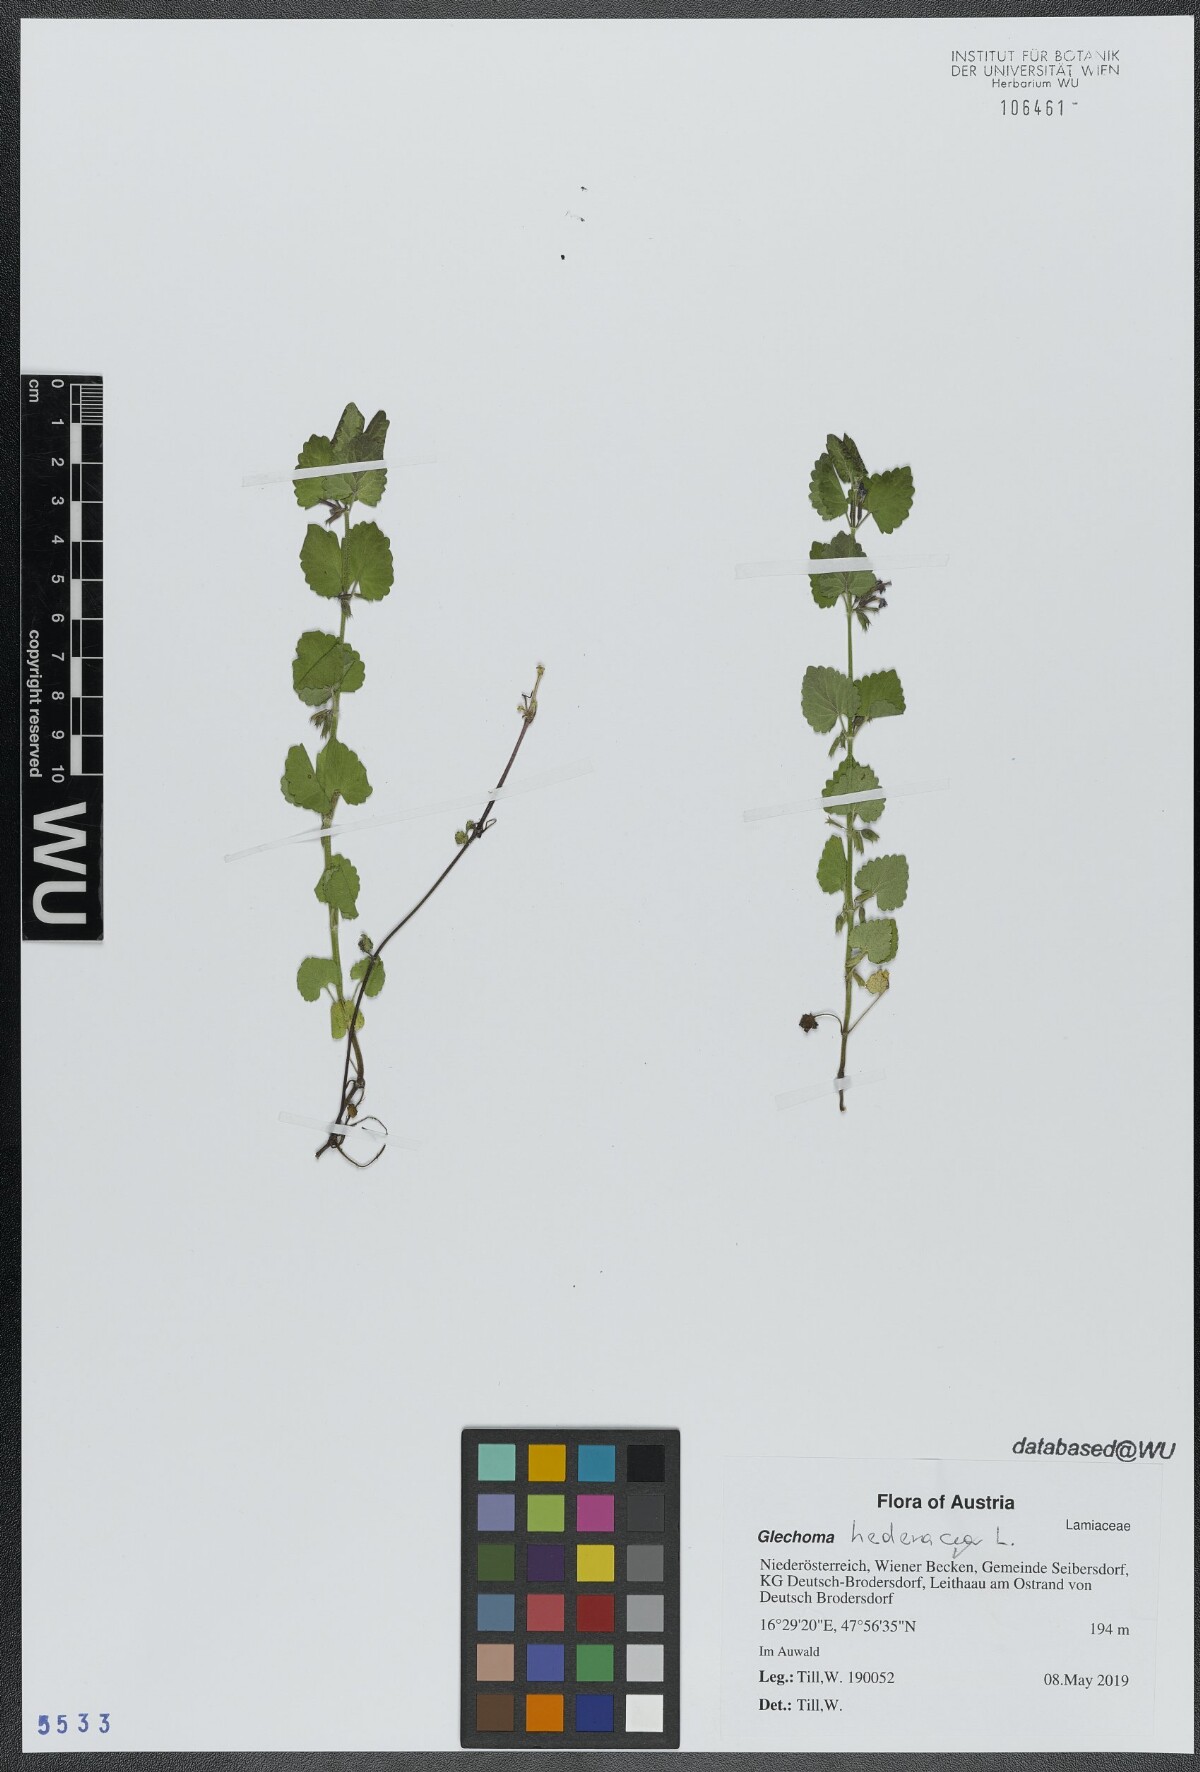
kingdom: Plantae
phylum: Tracheophyta
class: Magnoliopsida
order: Lamiales
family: Lamiaceae
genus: Glechoma
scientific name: Glechoma hederacea
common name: Ground ivy
